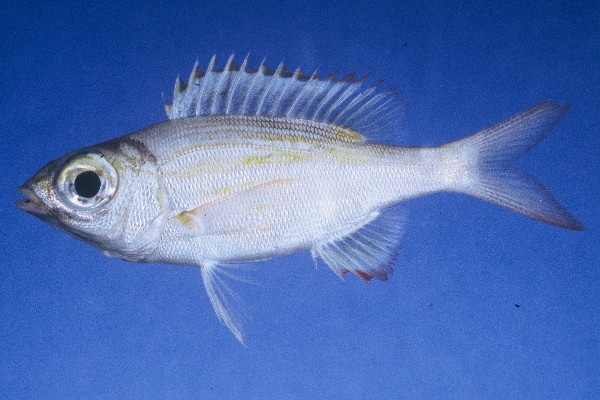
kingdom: Animalia
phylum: Chordata
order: Perciformes
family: Lethrinidae
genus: Gnathodentex
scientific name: Gnathodentex aureolineatus
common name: Gold-lined sea bream
